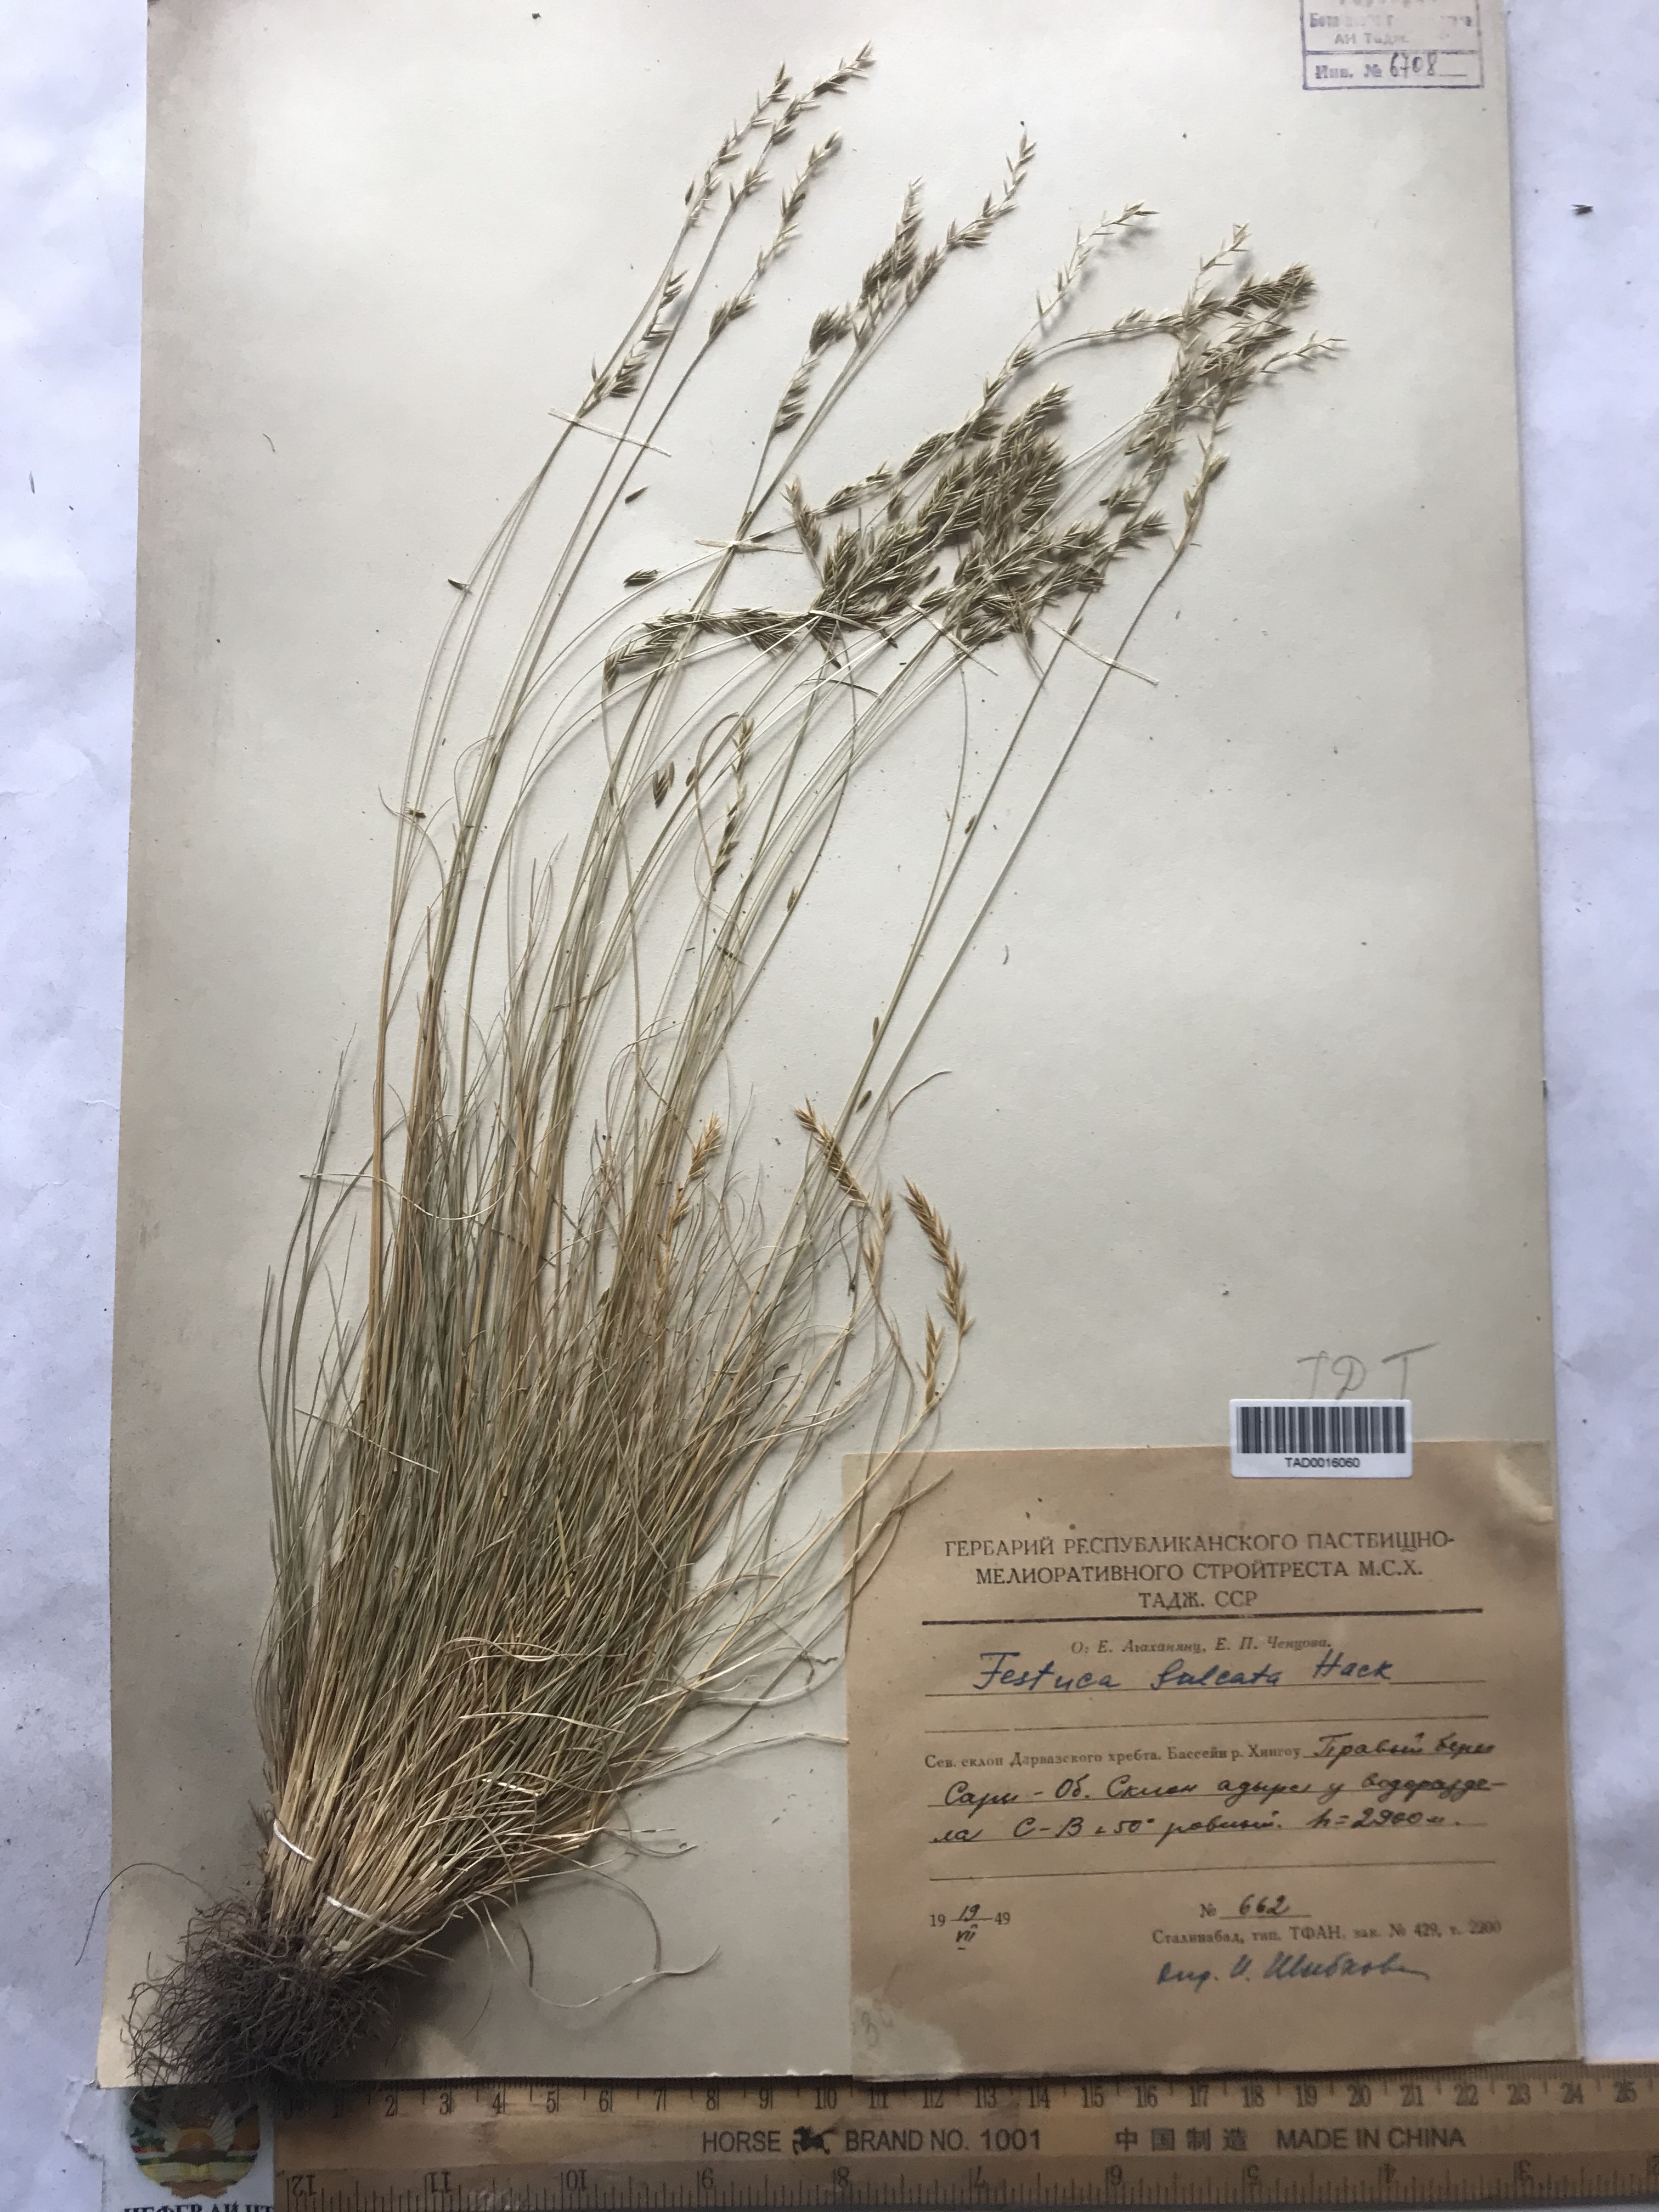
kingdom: Plantae
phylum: Tracheophyta
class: Liliopsida
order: Poales
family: Poaceae
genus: Festuca
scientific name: Festuca sulcata
